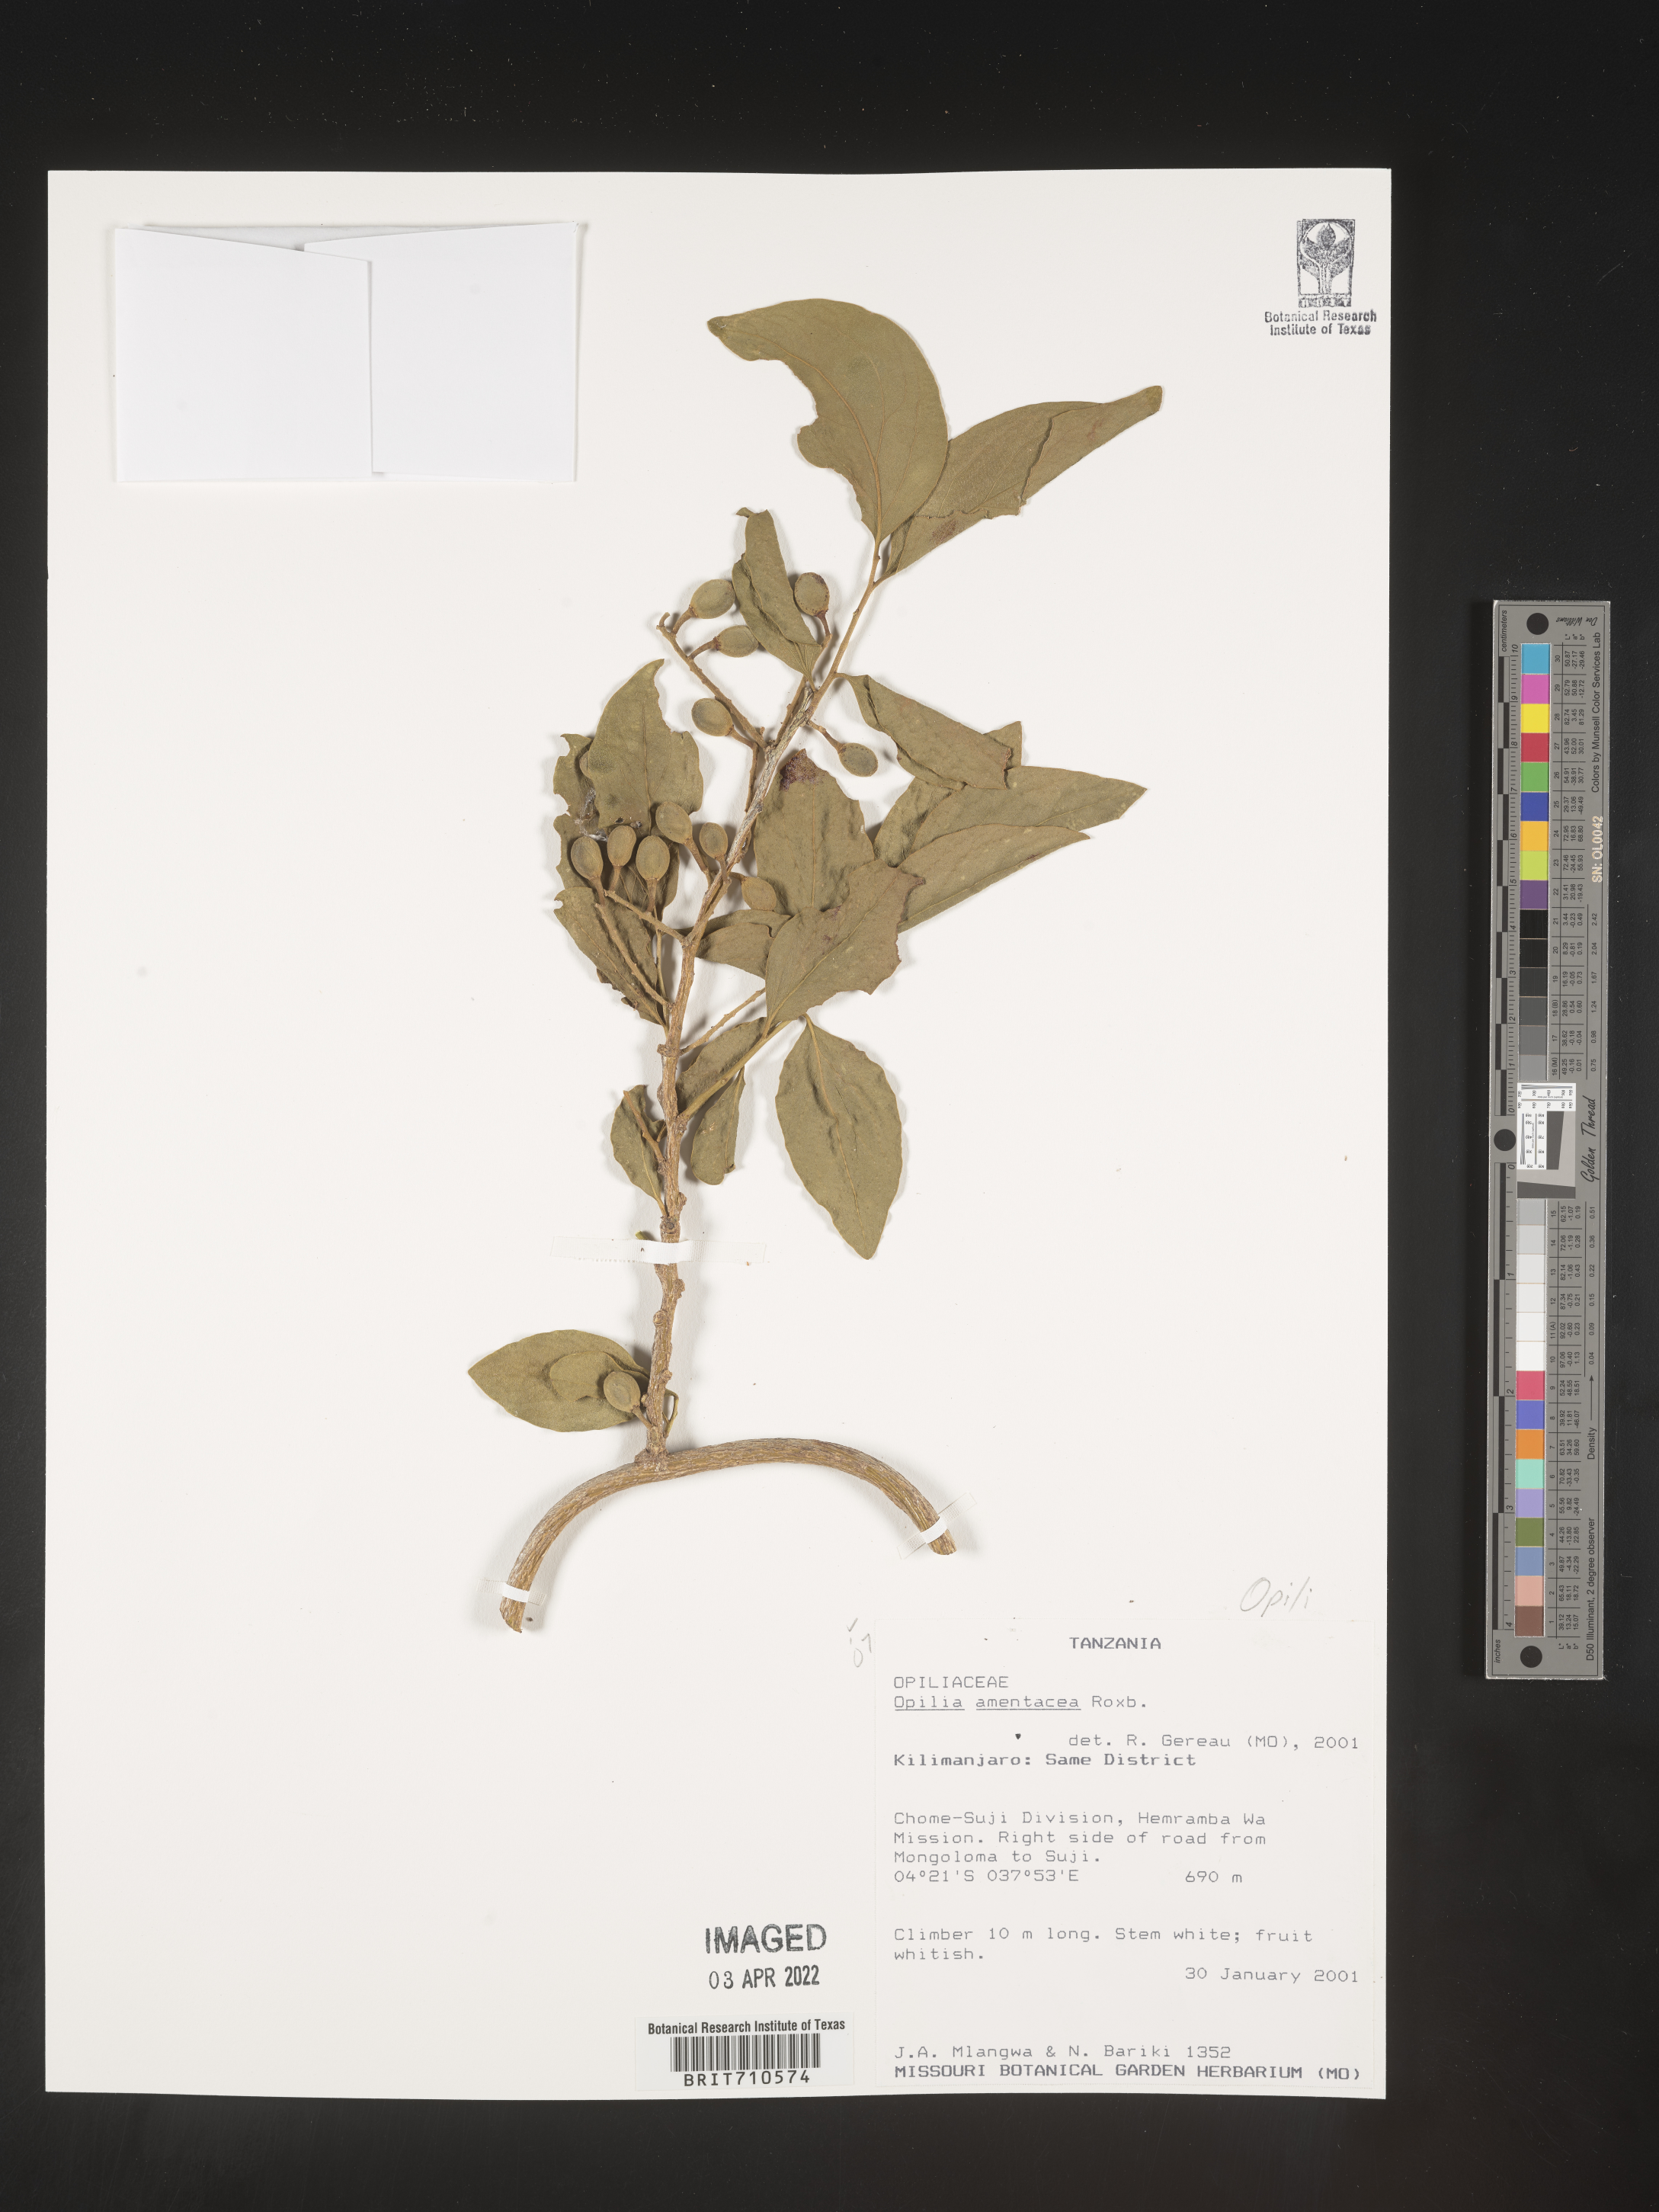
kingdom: Plantae
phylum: Tracheophyta
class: Magnoliopsida
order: Santalales
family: Opiliaceae
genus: Opilia
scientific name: Opilia
